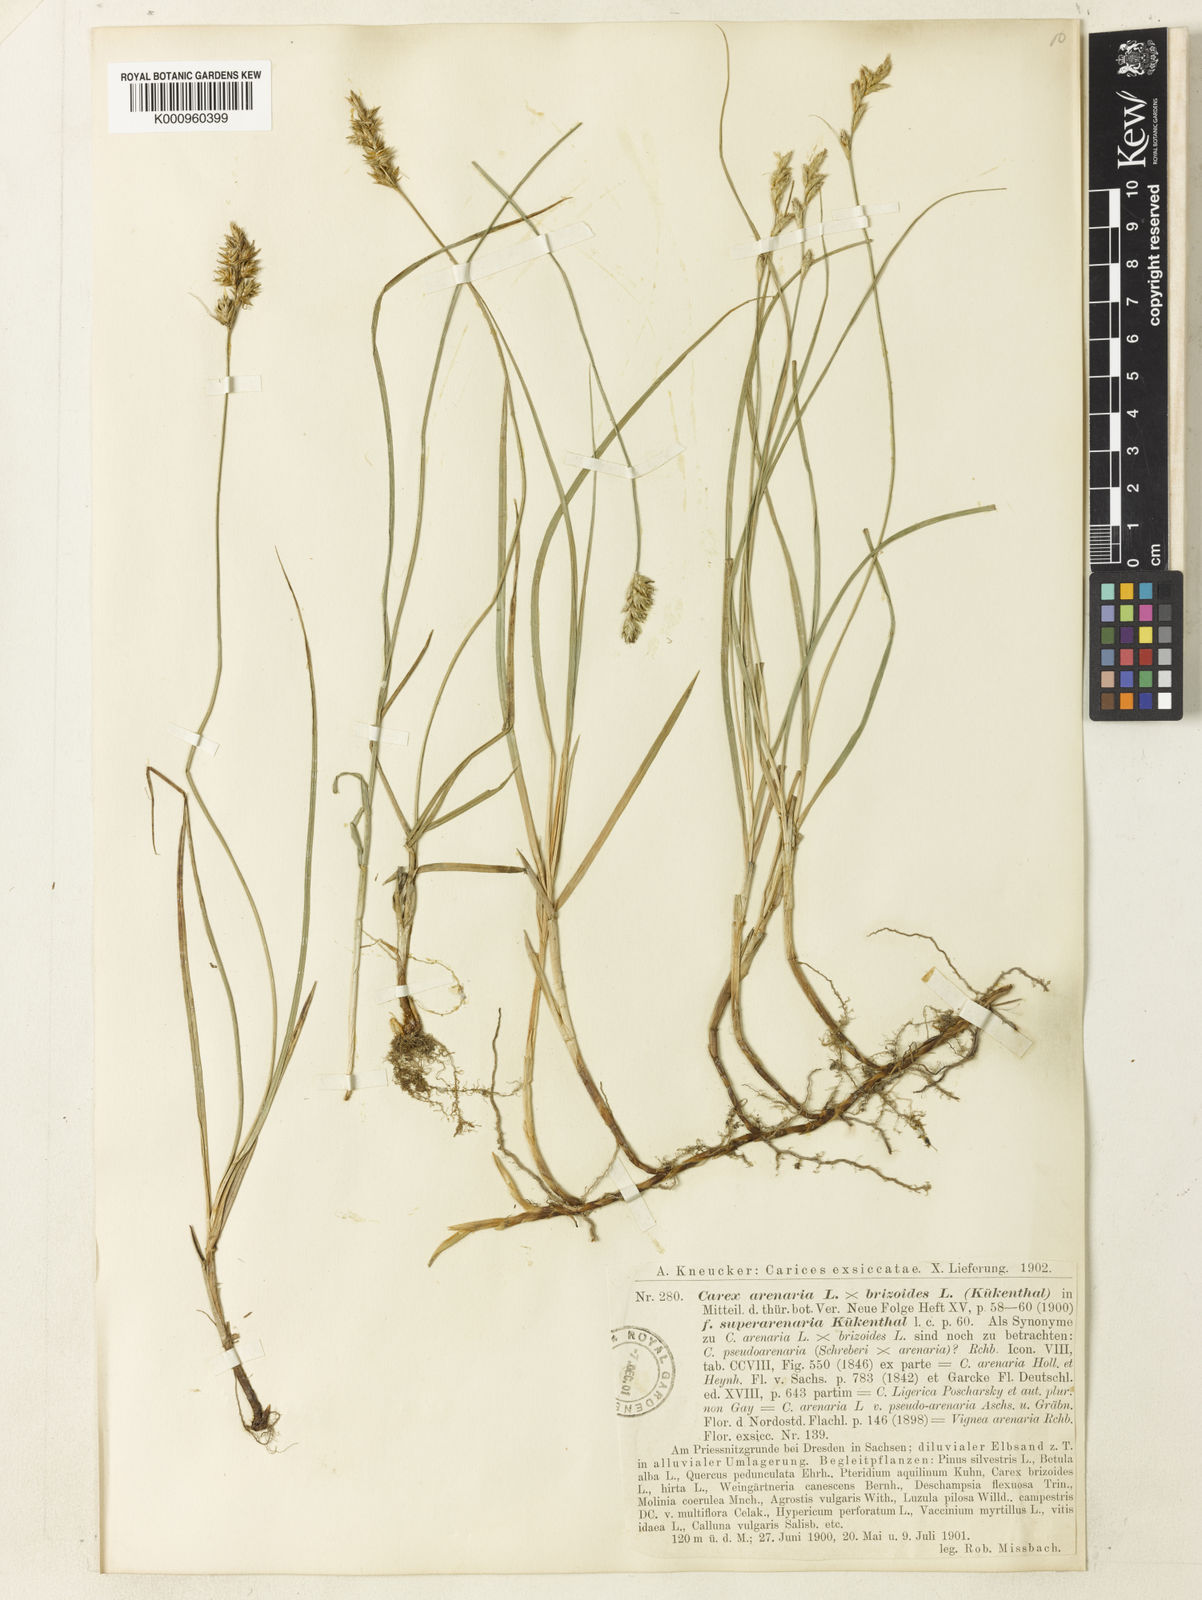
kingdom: Plantae
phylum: Tracheophyta
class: Liliopsida
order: Poales
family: Cyperaceae
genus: Carex
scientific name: Carex
